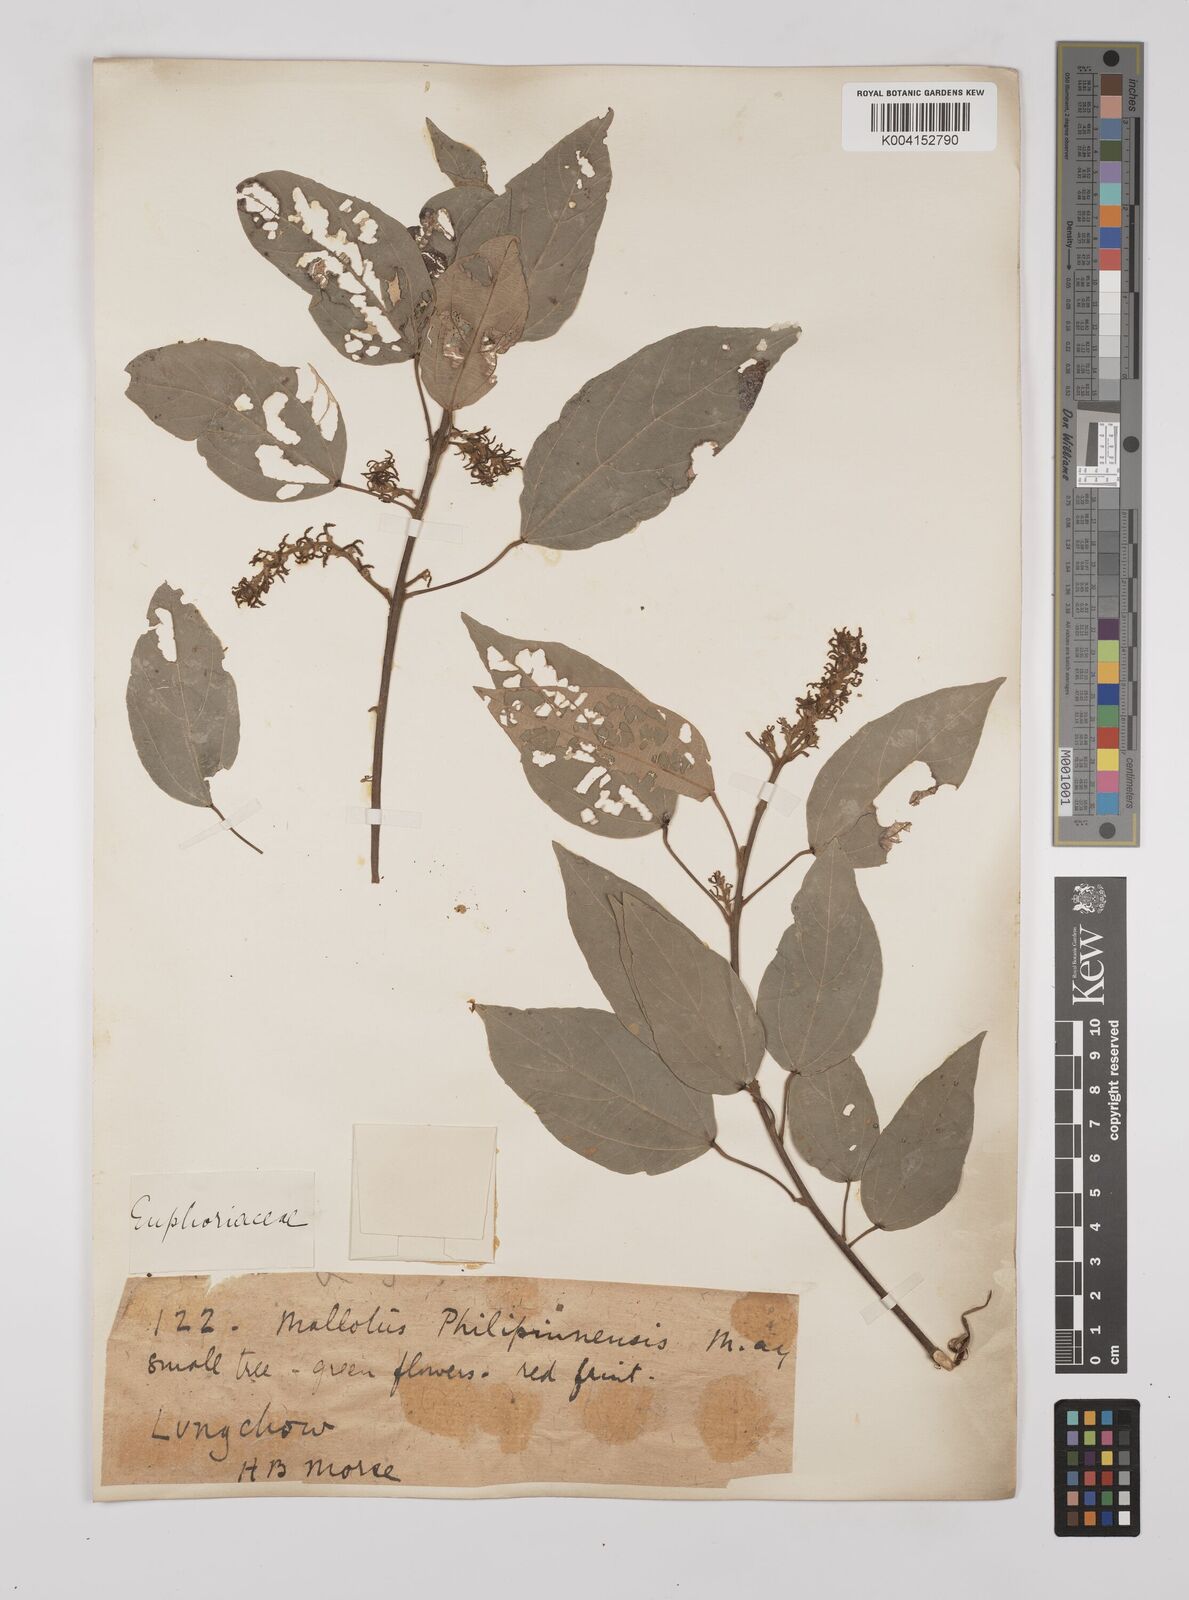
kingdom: Plantae
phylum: Tracheophyta
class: Magnoliopsida
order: Malpighiales
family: Euphorbiaceae
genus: Mallotus
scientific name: Mallotus philippensis
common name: Kamala tree
